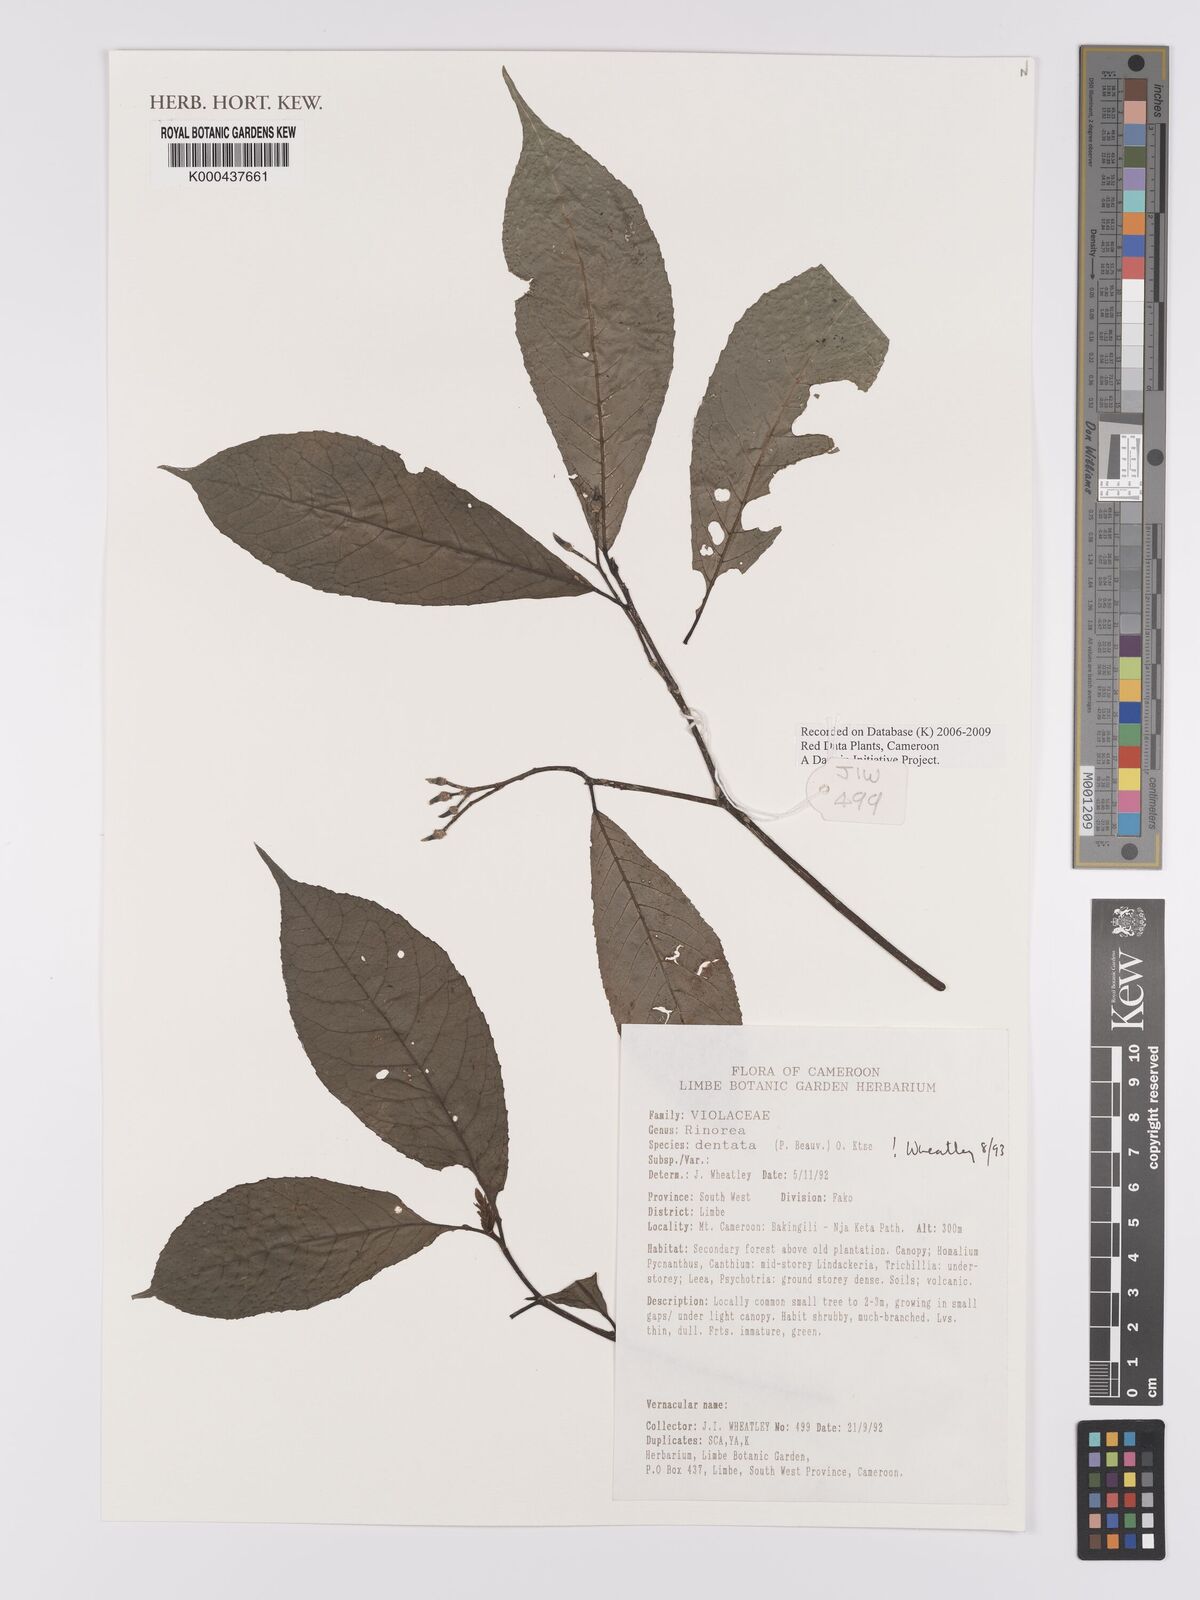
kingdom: Plantae
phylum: Tracheophyta
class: Magnoliopsida
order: Malpighiales
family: Violaceae
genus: Rinorea
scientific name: Rinorea dentata
